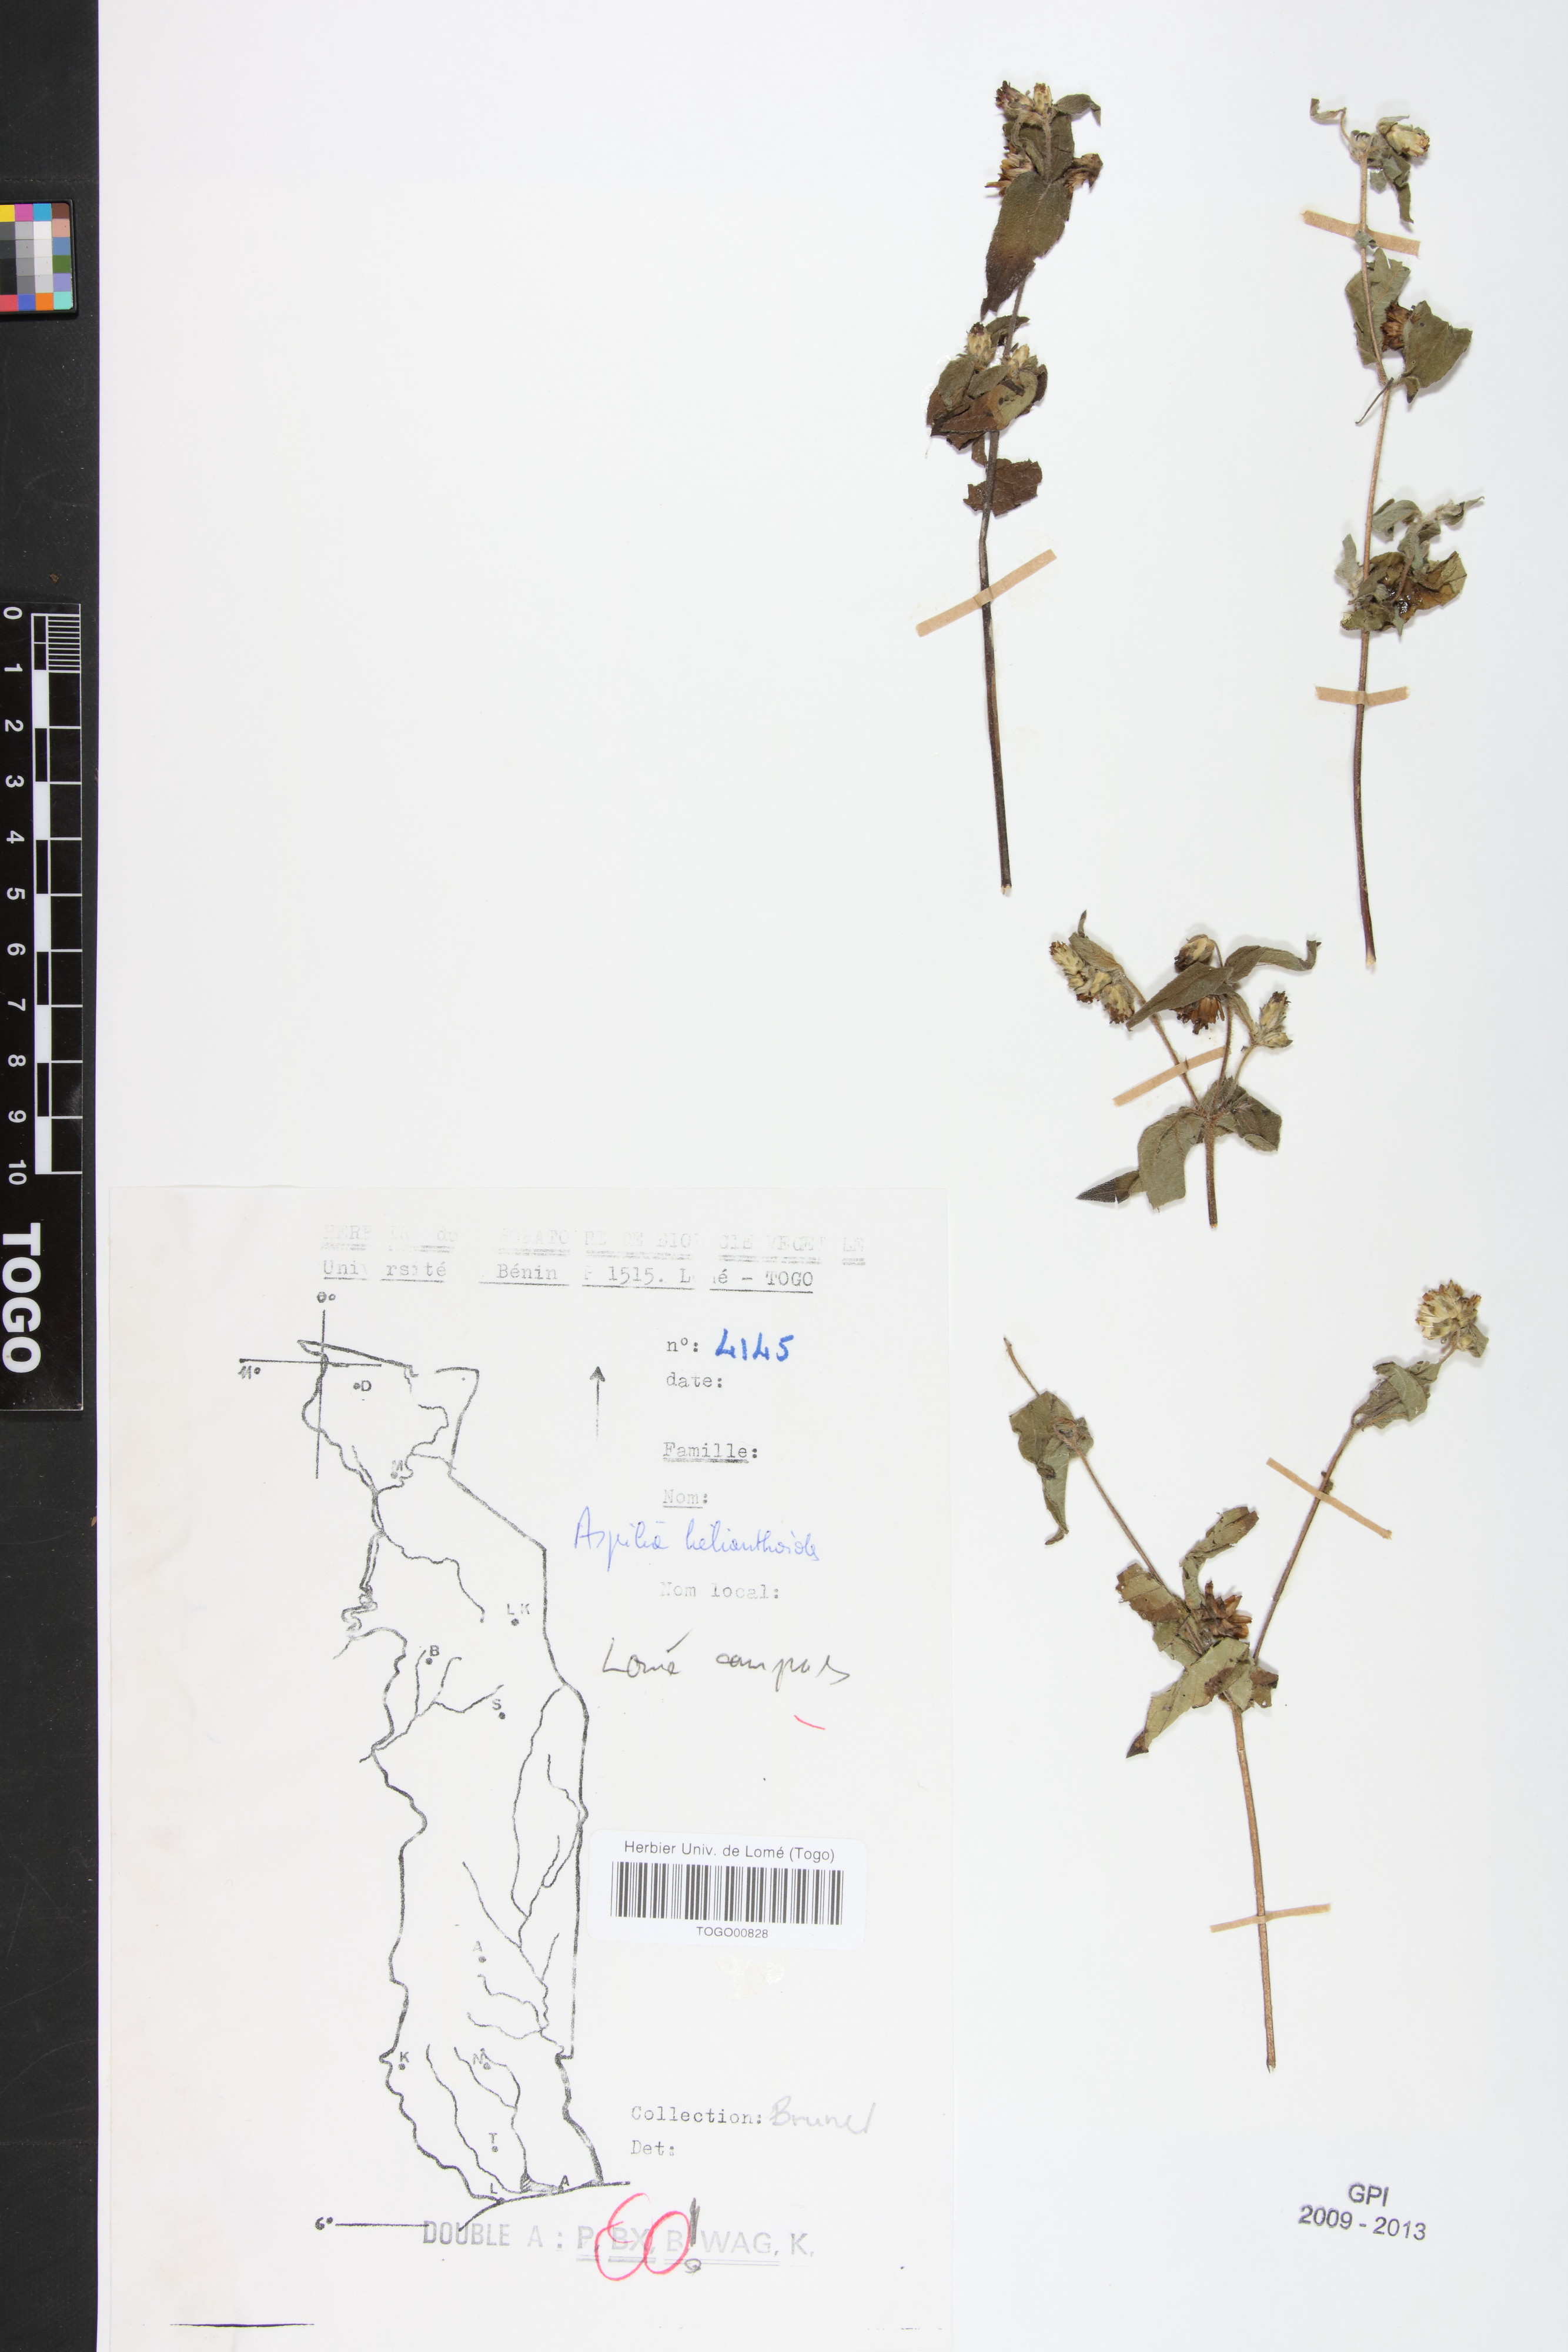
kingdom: Plantae
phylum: Tracheophyta
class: Magnoliopsida
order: Asterales
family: Asteraceae
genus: Aspilia
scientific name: Aspilia helianthoides
